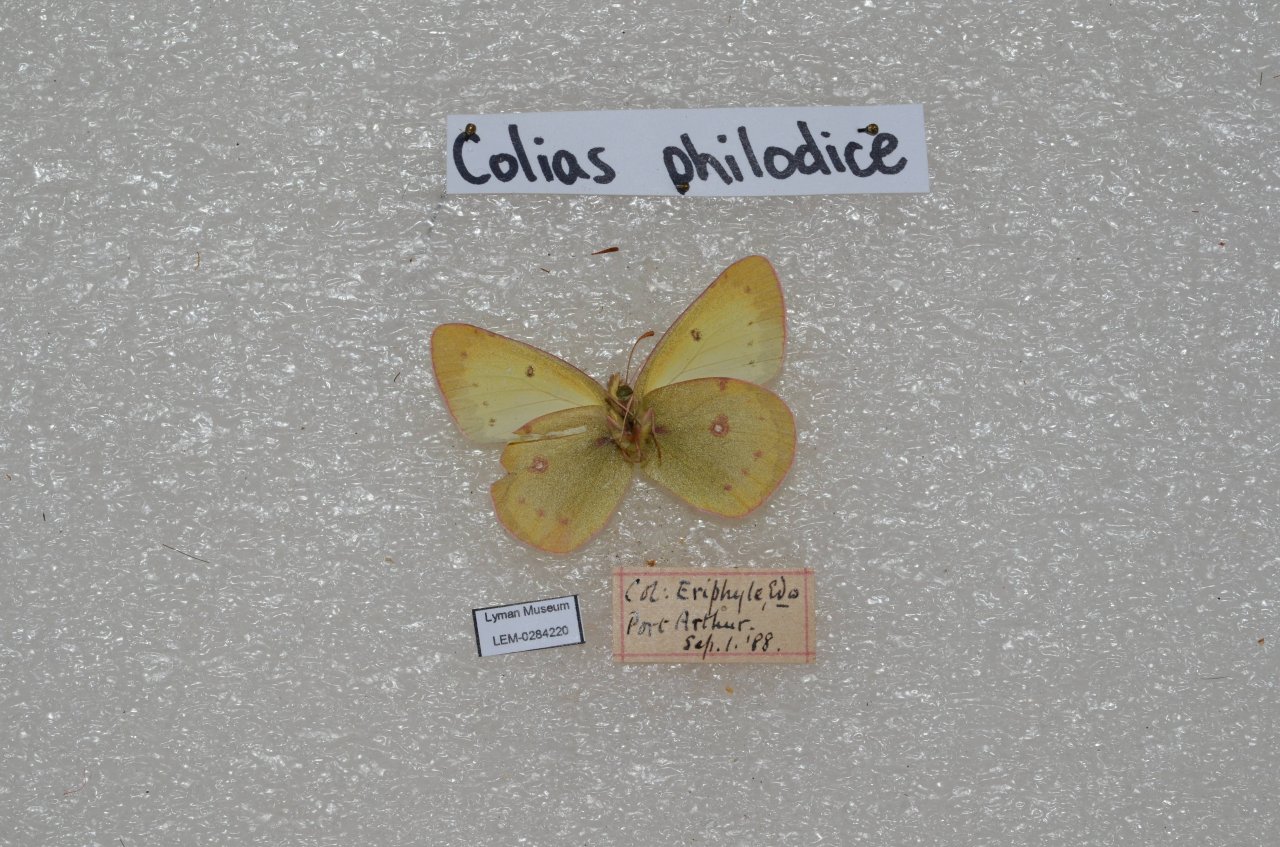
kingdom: Animalia
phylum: Arthropoda
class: Insecta
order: Lepidoptera
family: Pieridae
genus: Colias
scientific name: Colias philodice
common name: Clouded Sulphur
